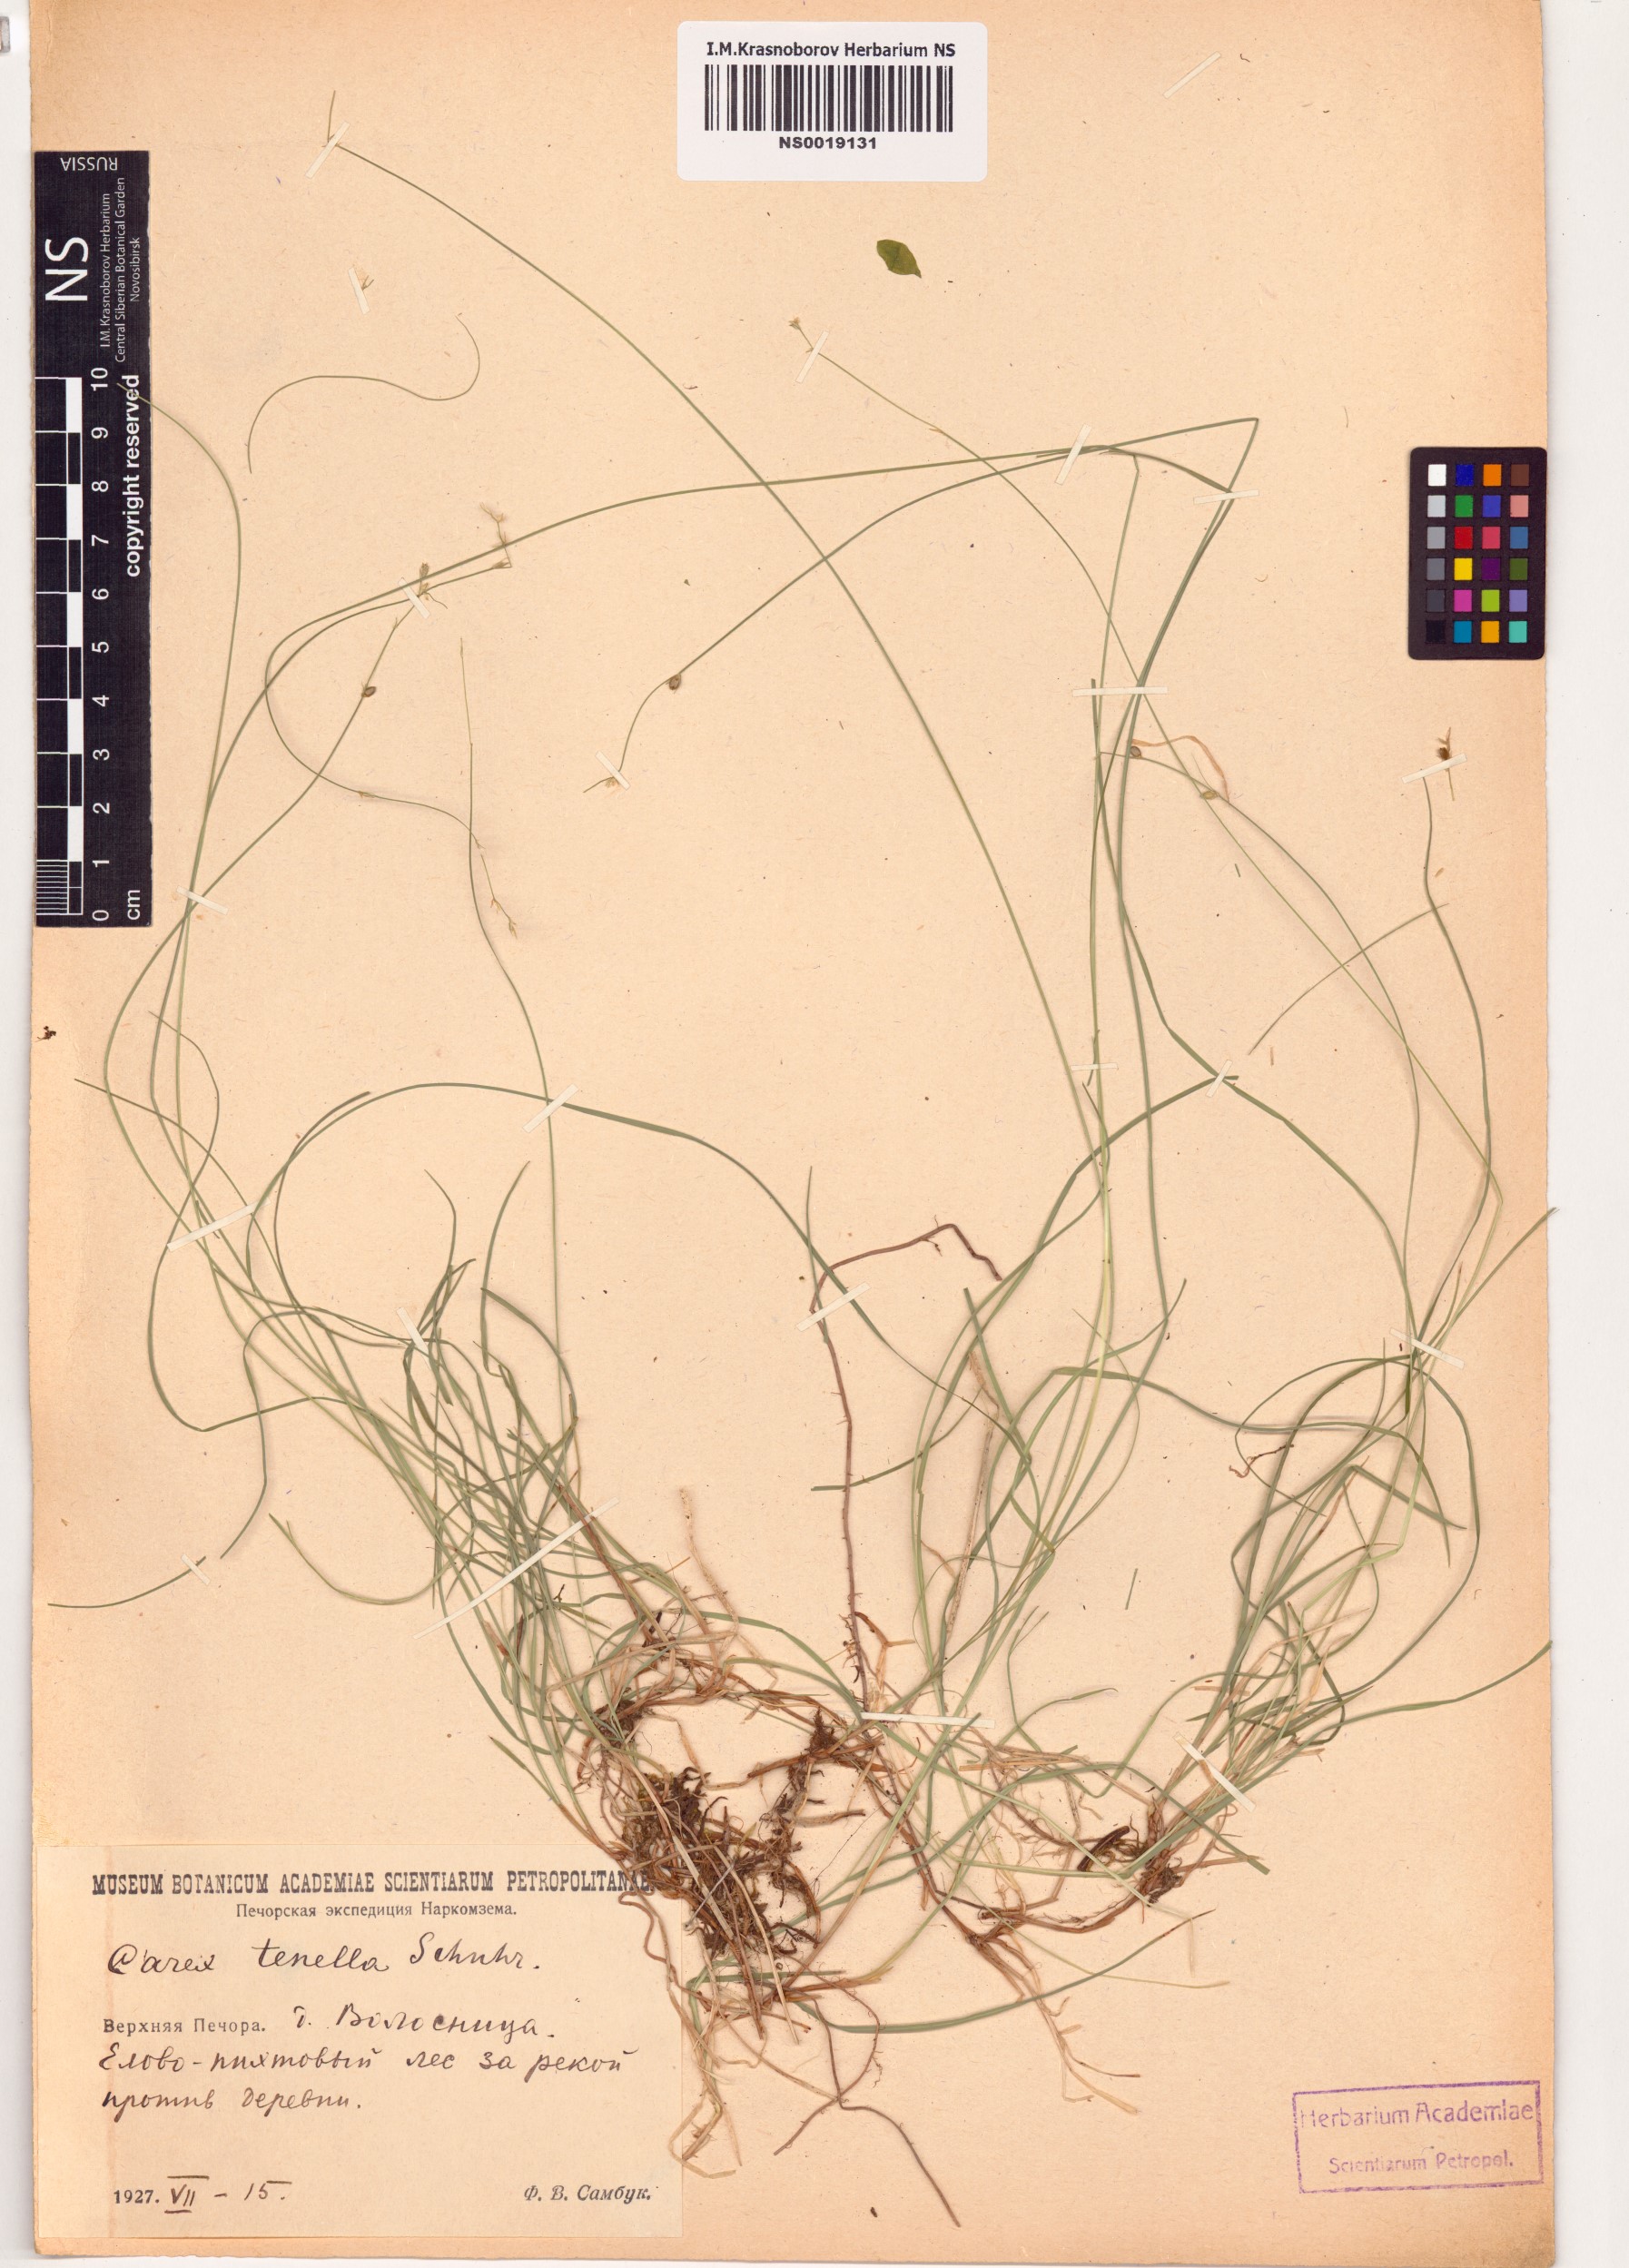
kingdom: Plantae
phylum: Tracheophyta
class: Liliopsida
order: Poales
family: Cyperaceae
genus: Carex
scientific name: Carex disperma
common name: Short-leaved sedge
